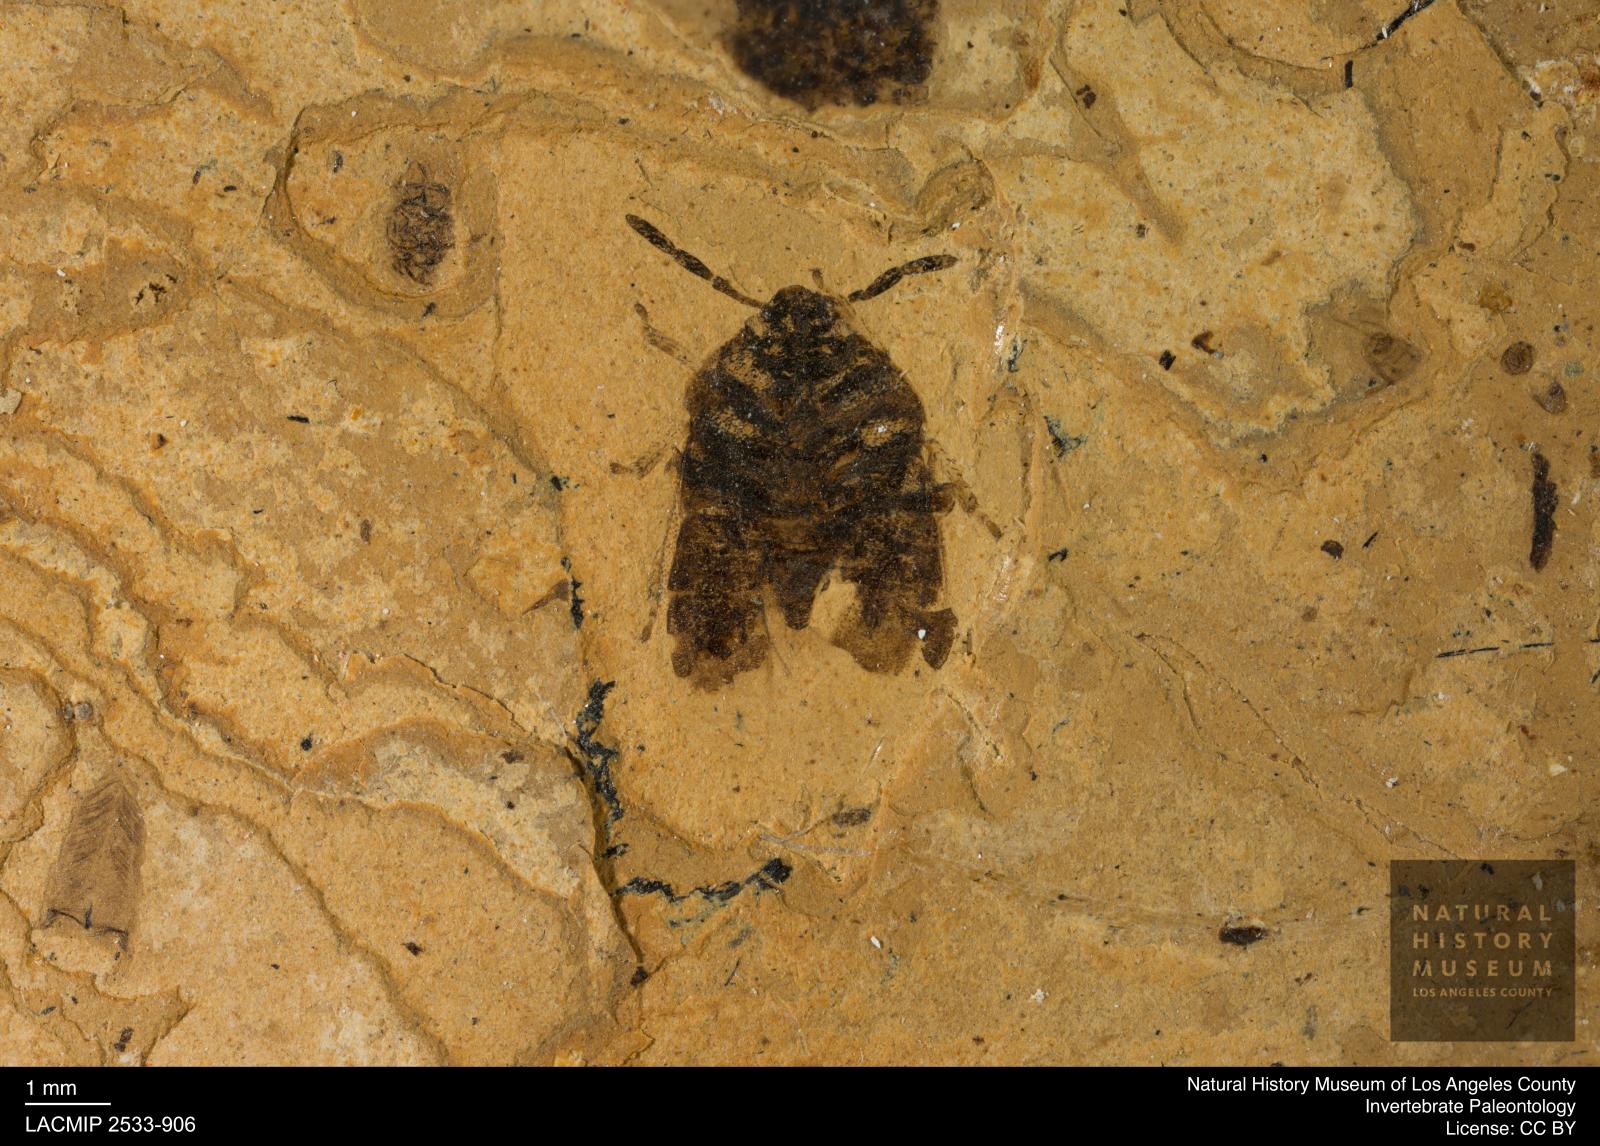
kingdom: Animalia
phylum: Arthropoda
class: Insecta
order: Hemiptera
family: Cydnidae
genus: Crocistethus
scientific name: Crocistethus madens
